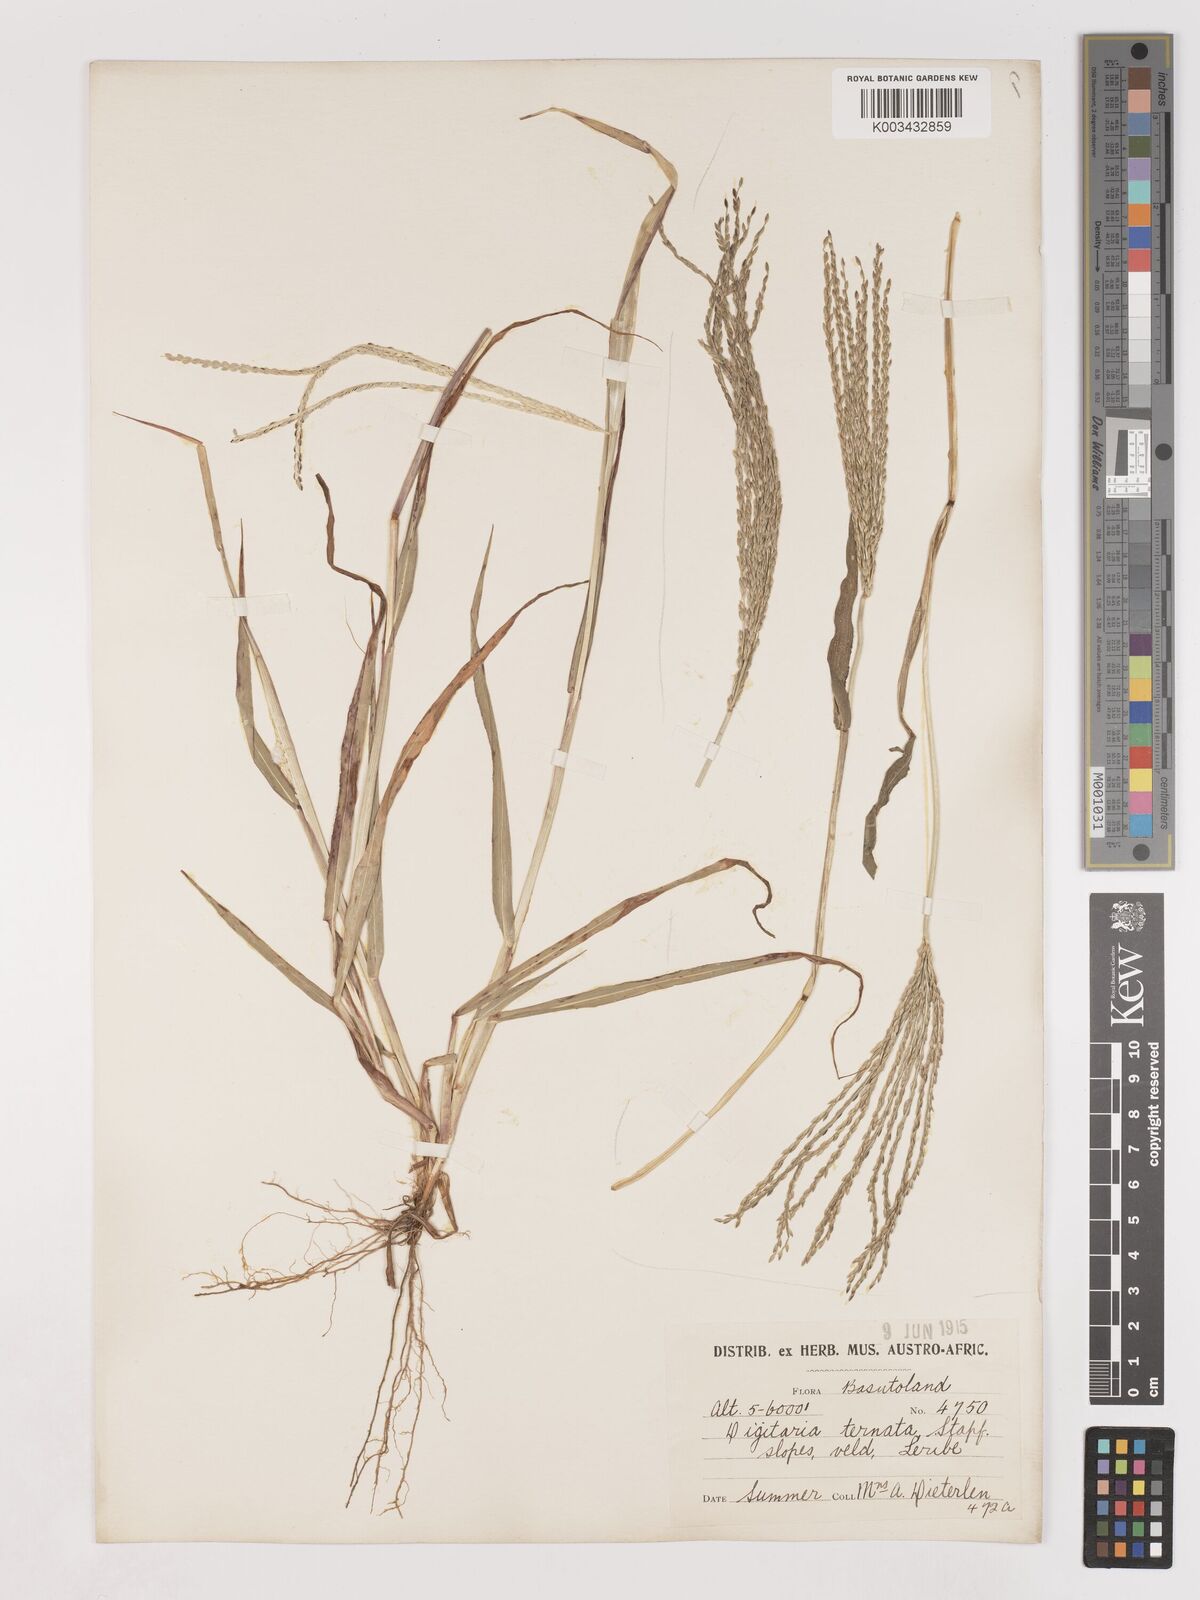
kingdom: Plantae
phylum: Tracheophyta
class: Liliopsida
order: Poales
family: Poaceae
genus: Digitaria
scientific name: Digitaria ternata
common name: Blackseed crabgrass
